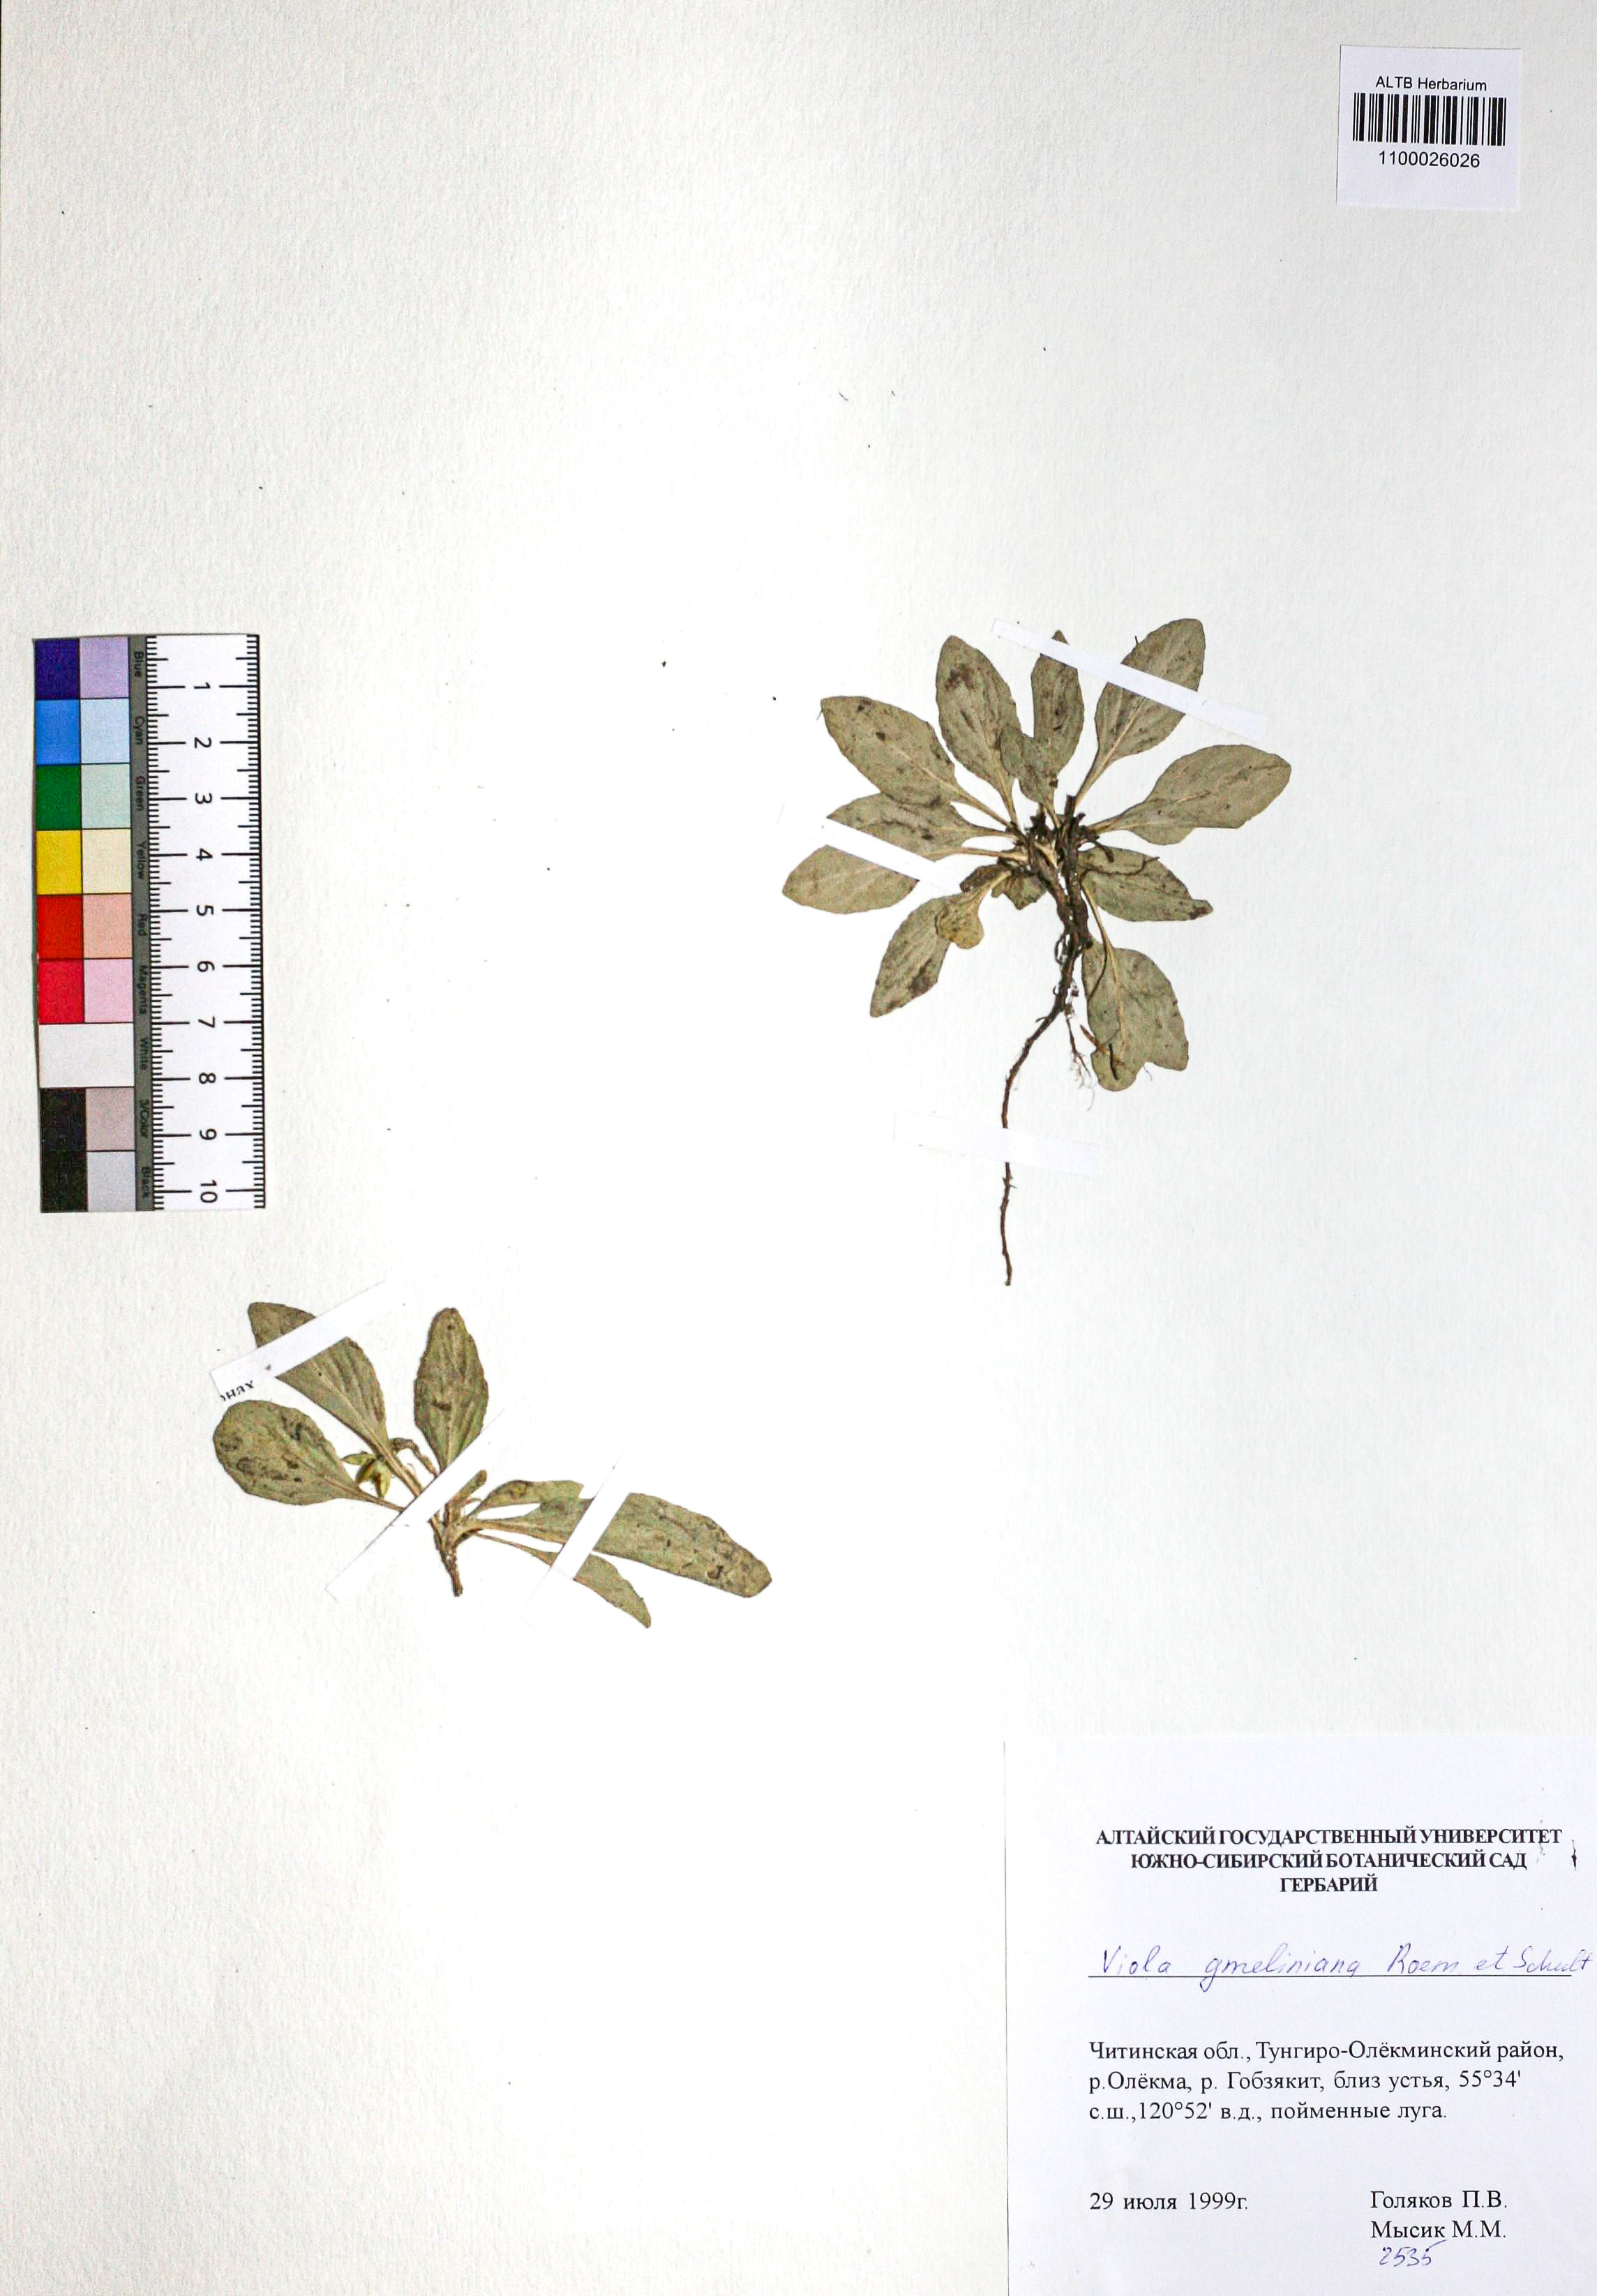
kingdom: Plantae
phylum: Tracheophyta
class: Magnoliopsida
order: Malpighiales
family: Violaceae
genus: Viola
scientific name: Viola gmeliniana
